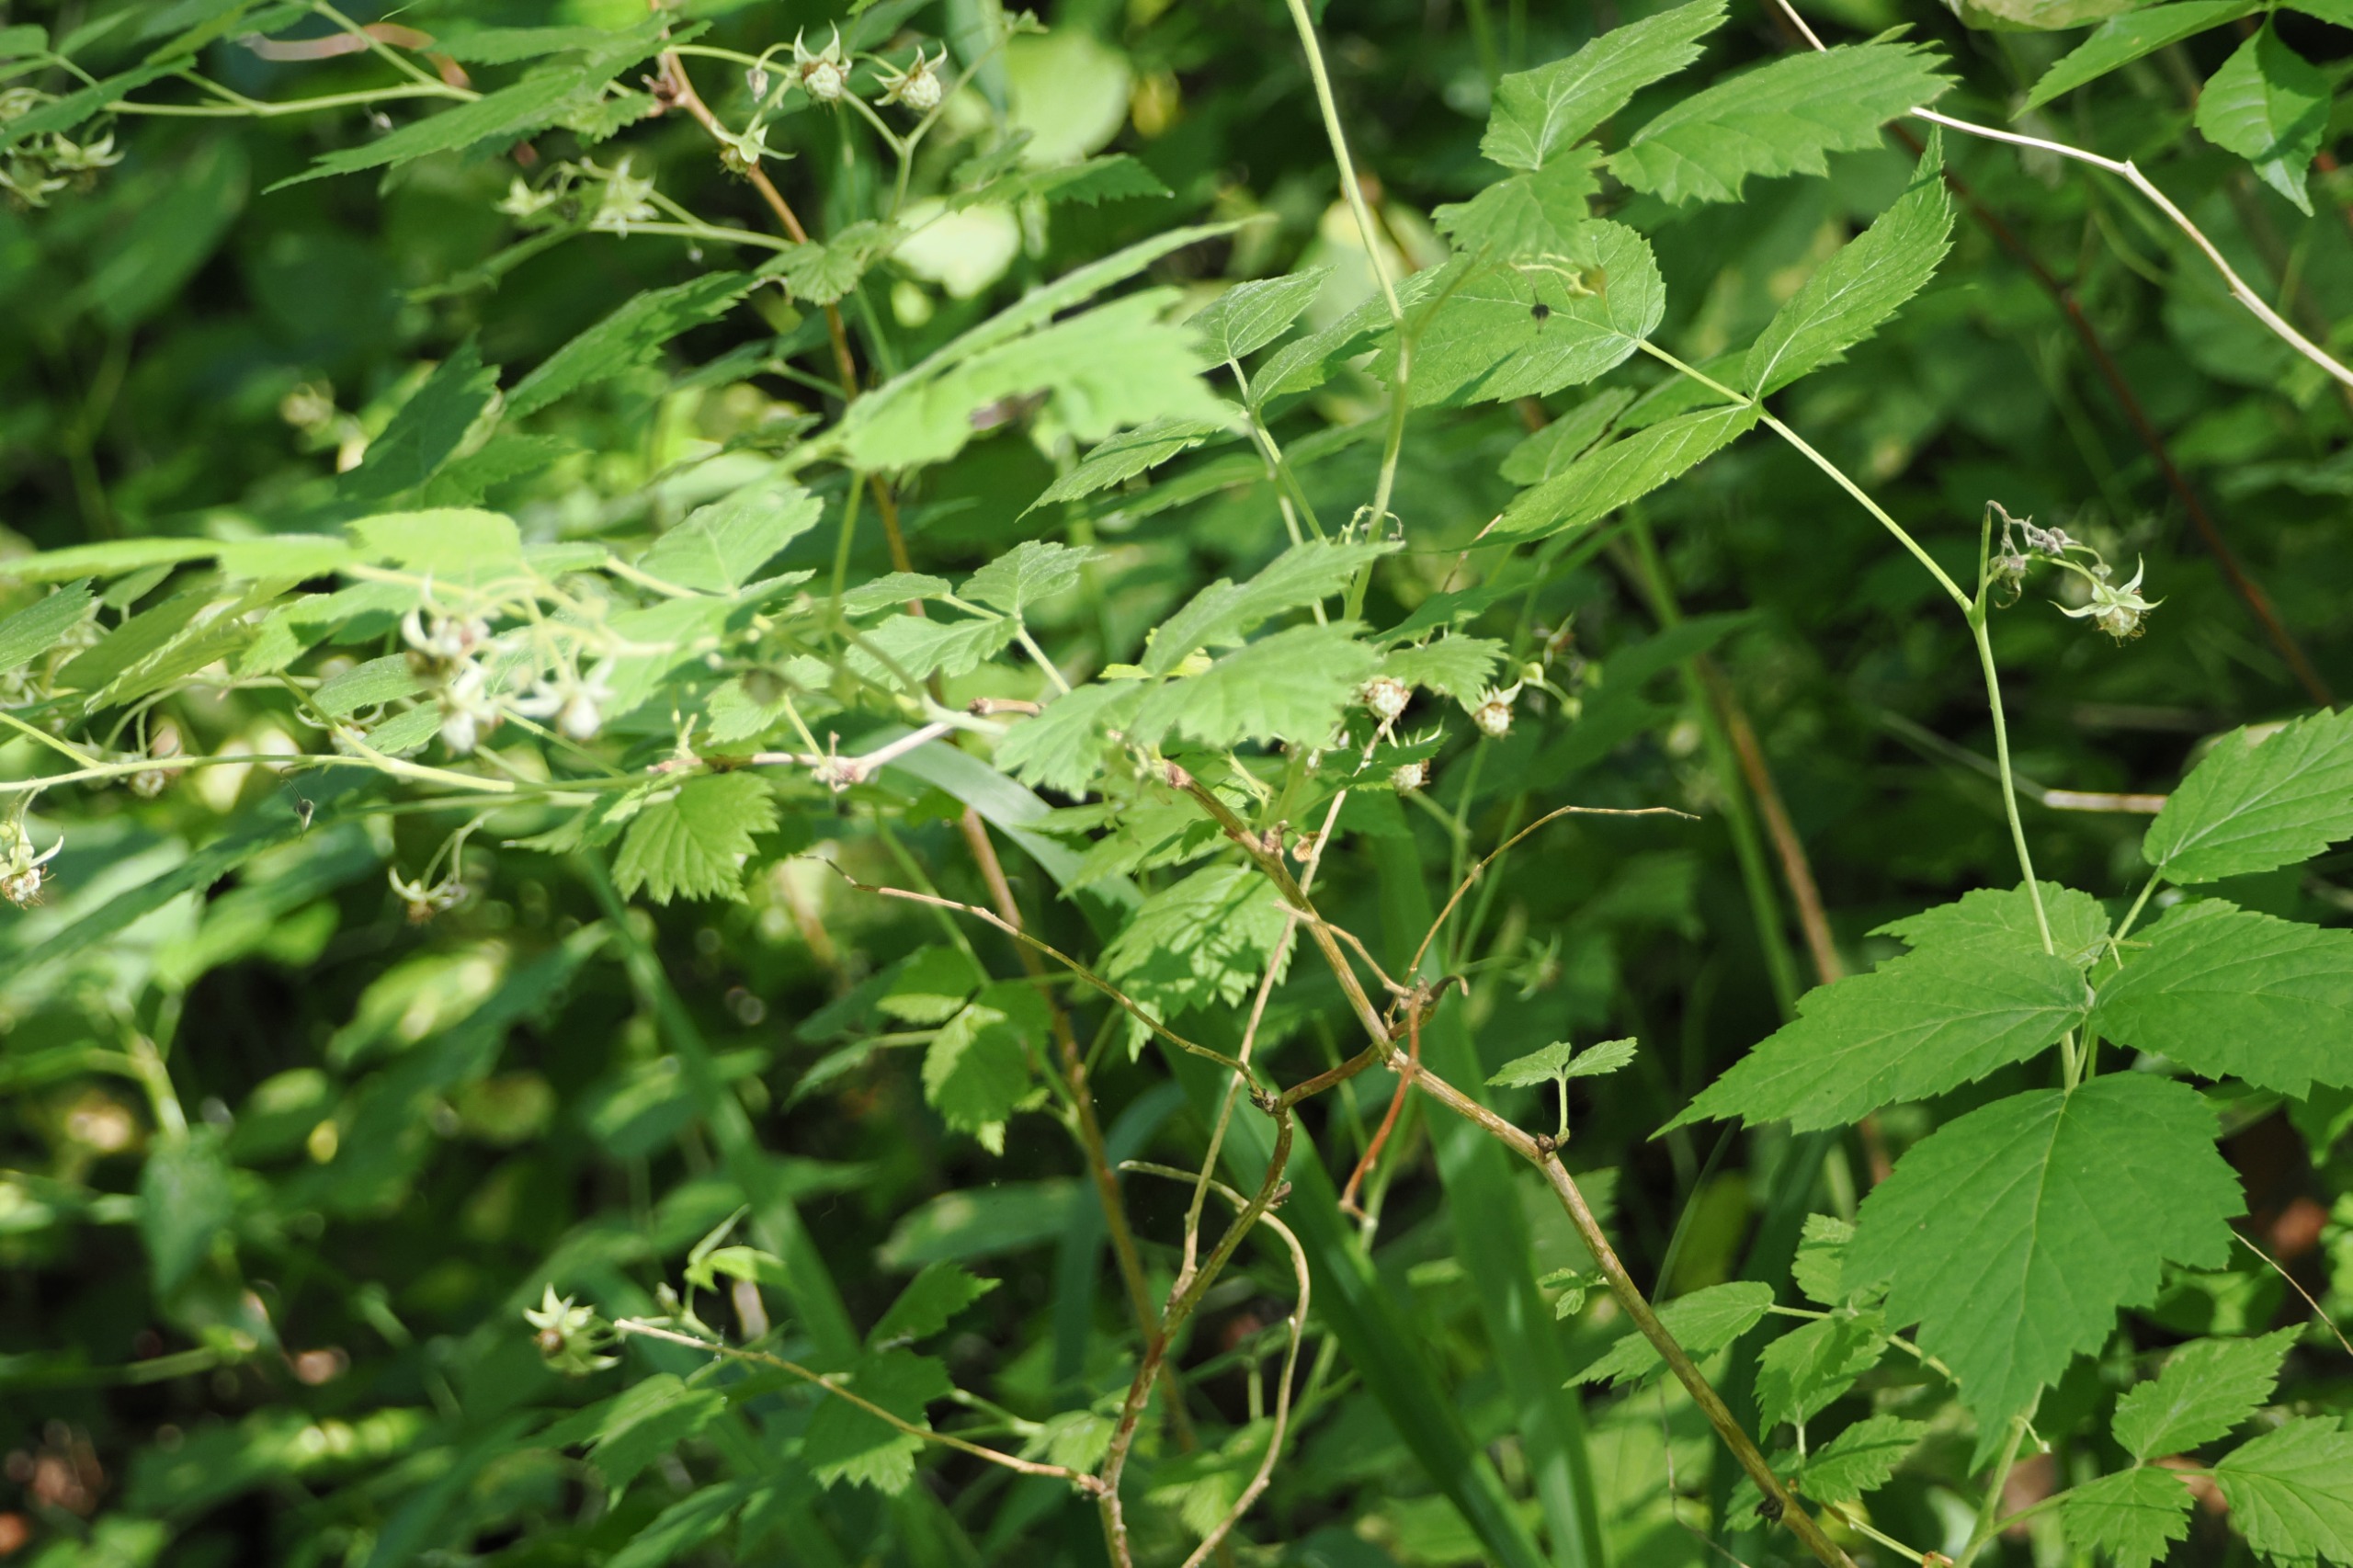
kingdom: Plantae
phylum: Tracheophyta
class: Magnoliopsida
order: Rosales
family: Rosaceae
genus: Rubus
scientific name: Rubus idaeus
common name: Hindbær
